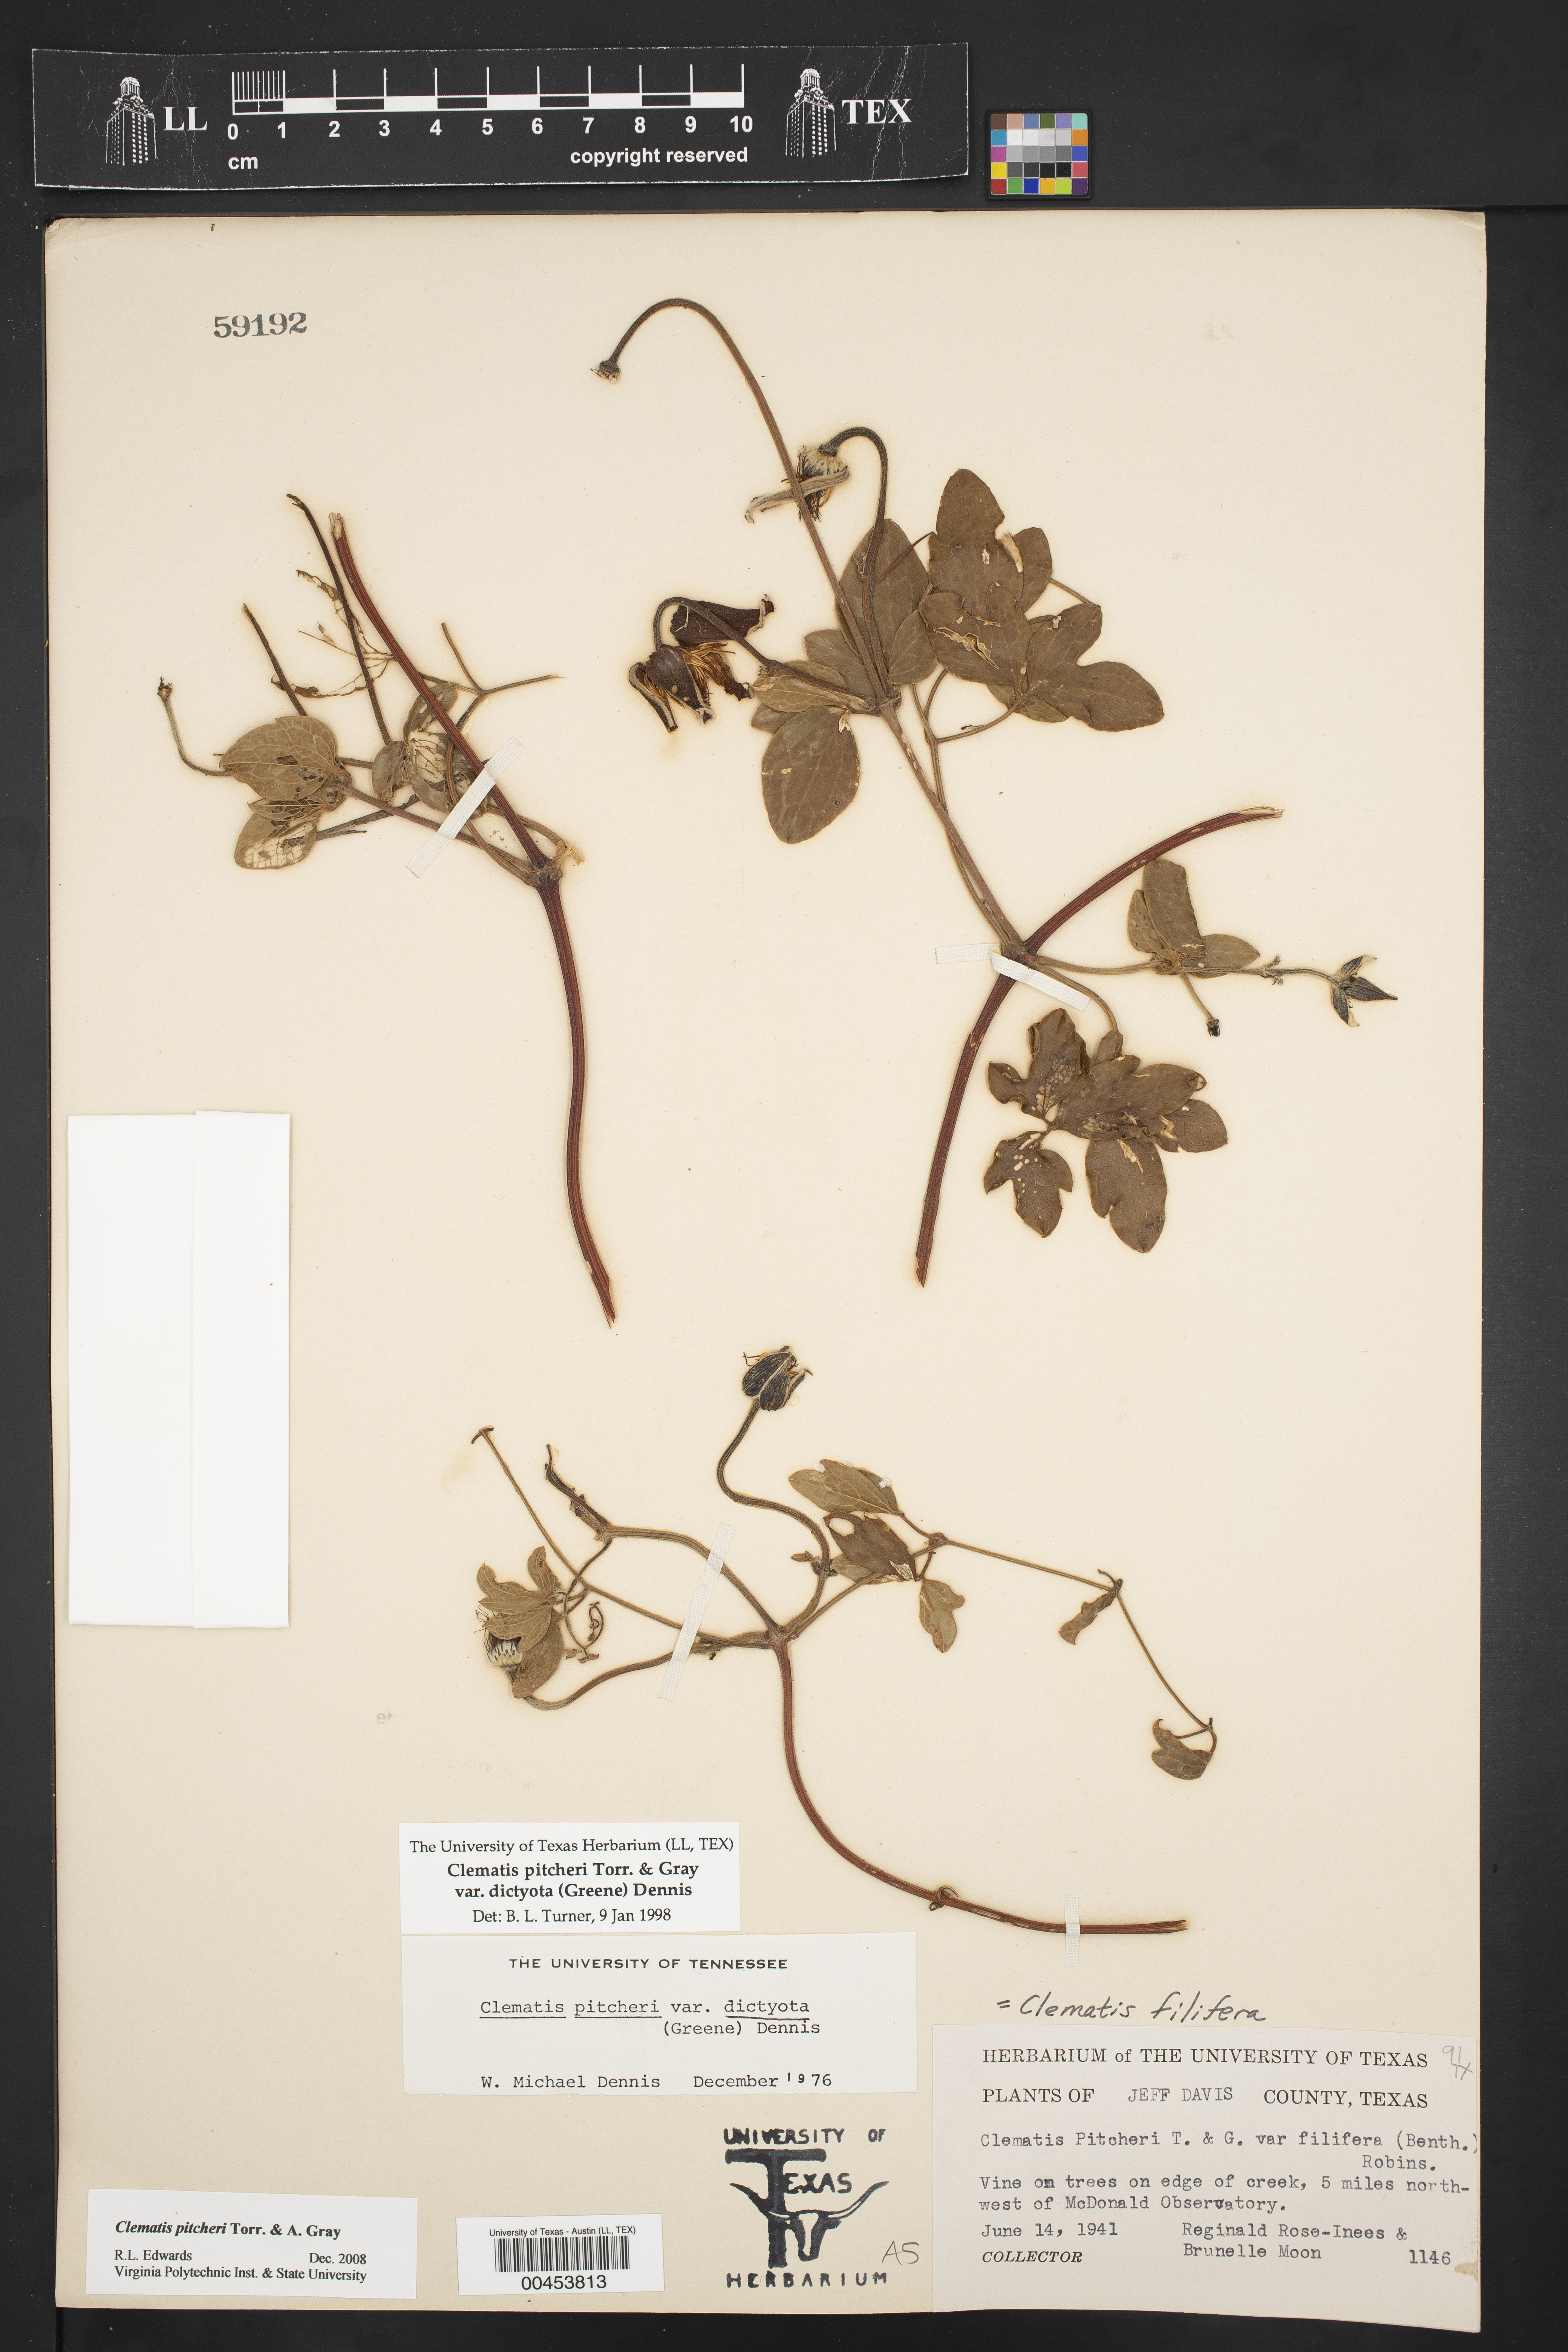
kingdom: Plantae
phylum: Tracheophyta
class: Magnoliopsida
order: Ranunculales
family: Ranunculaceae
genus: Clematis
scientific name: Clematis pitcheri
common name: Bellflower clematis
